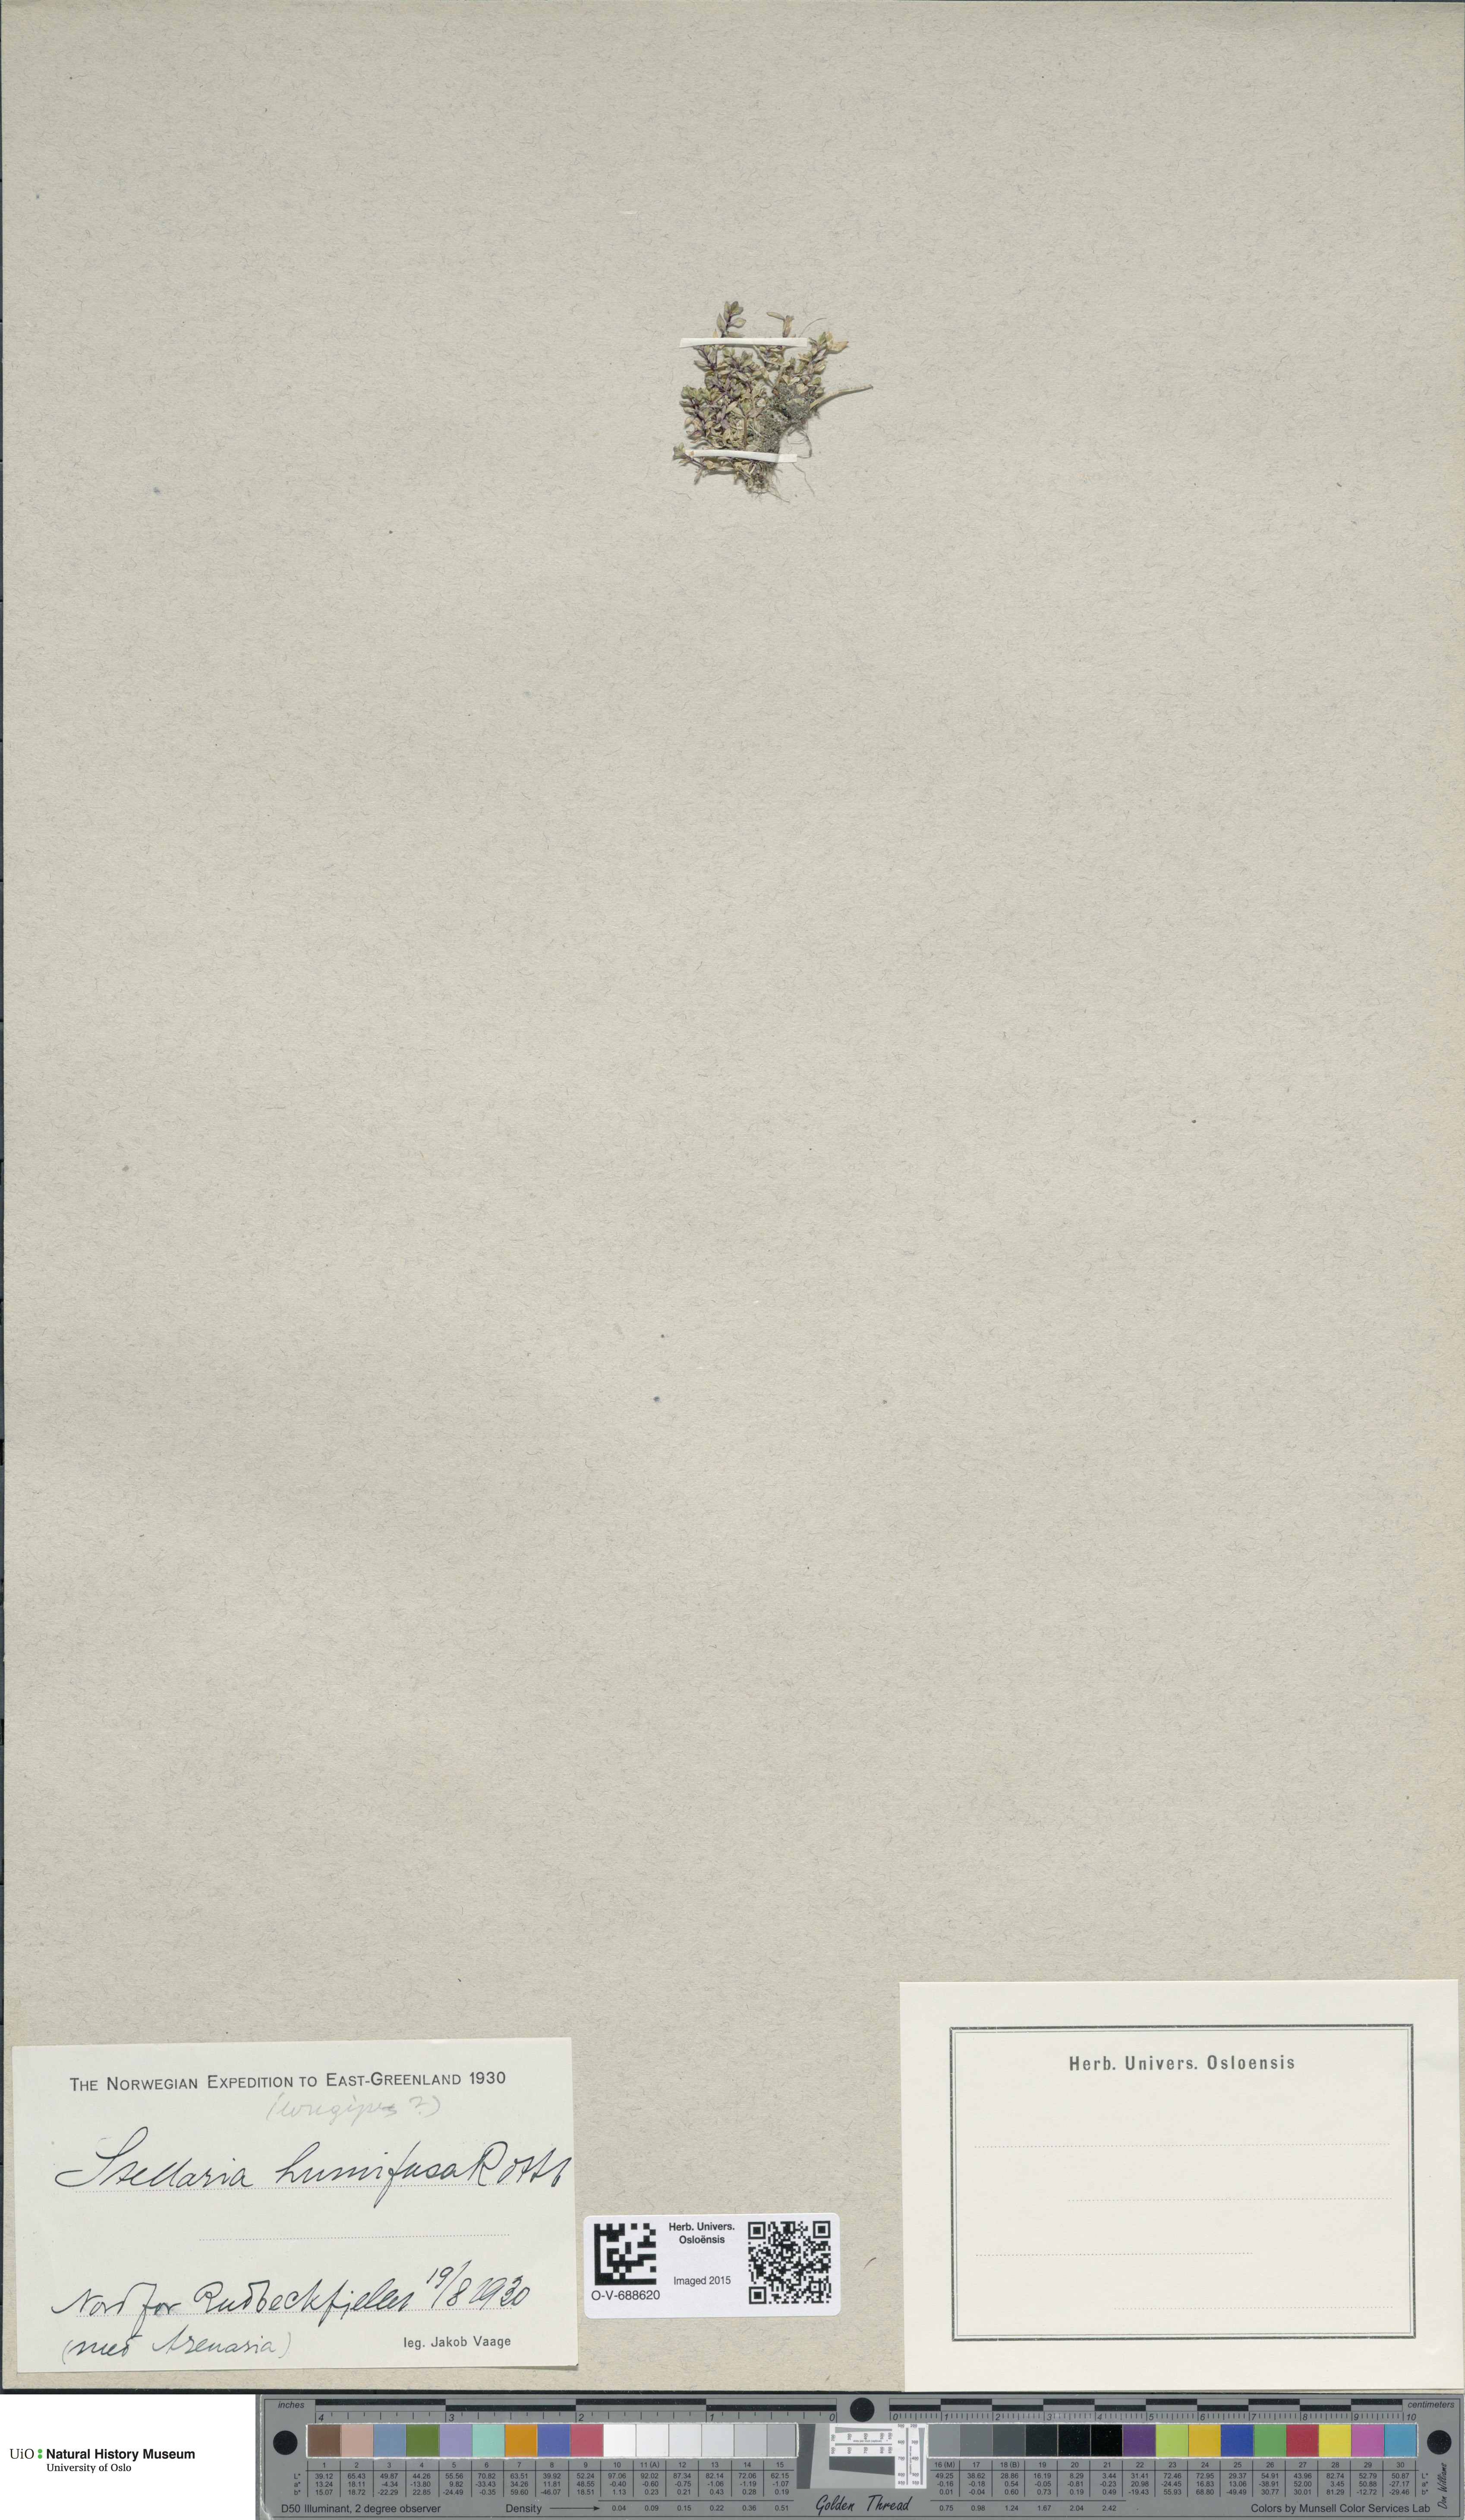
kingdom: Plantae
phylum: Tracheophyta
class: Magnoliopsida
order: Caryophyllales
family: Caryophyllaceae
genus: Stellaria
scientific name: Stellaria humifusa
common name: Creeping starwort
